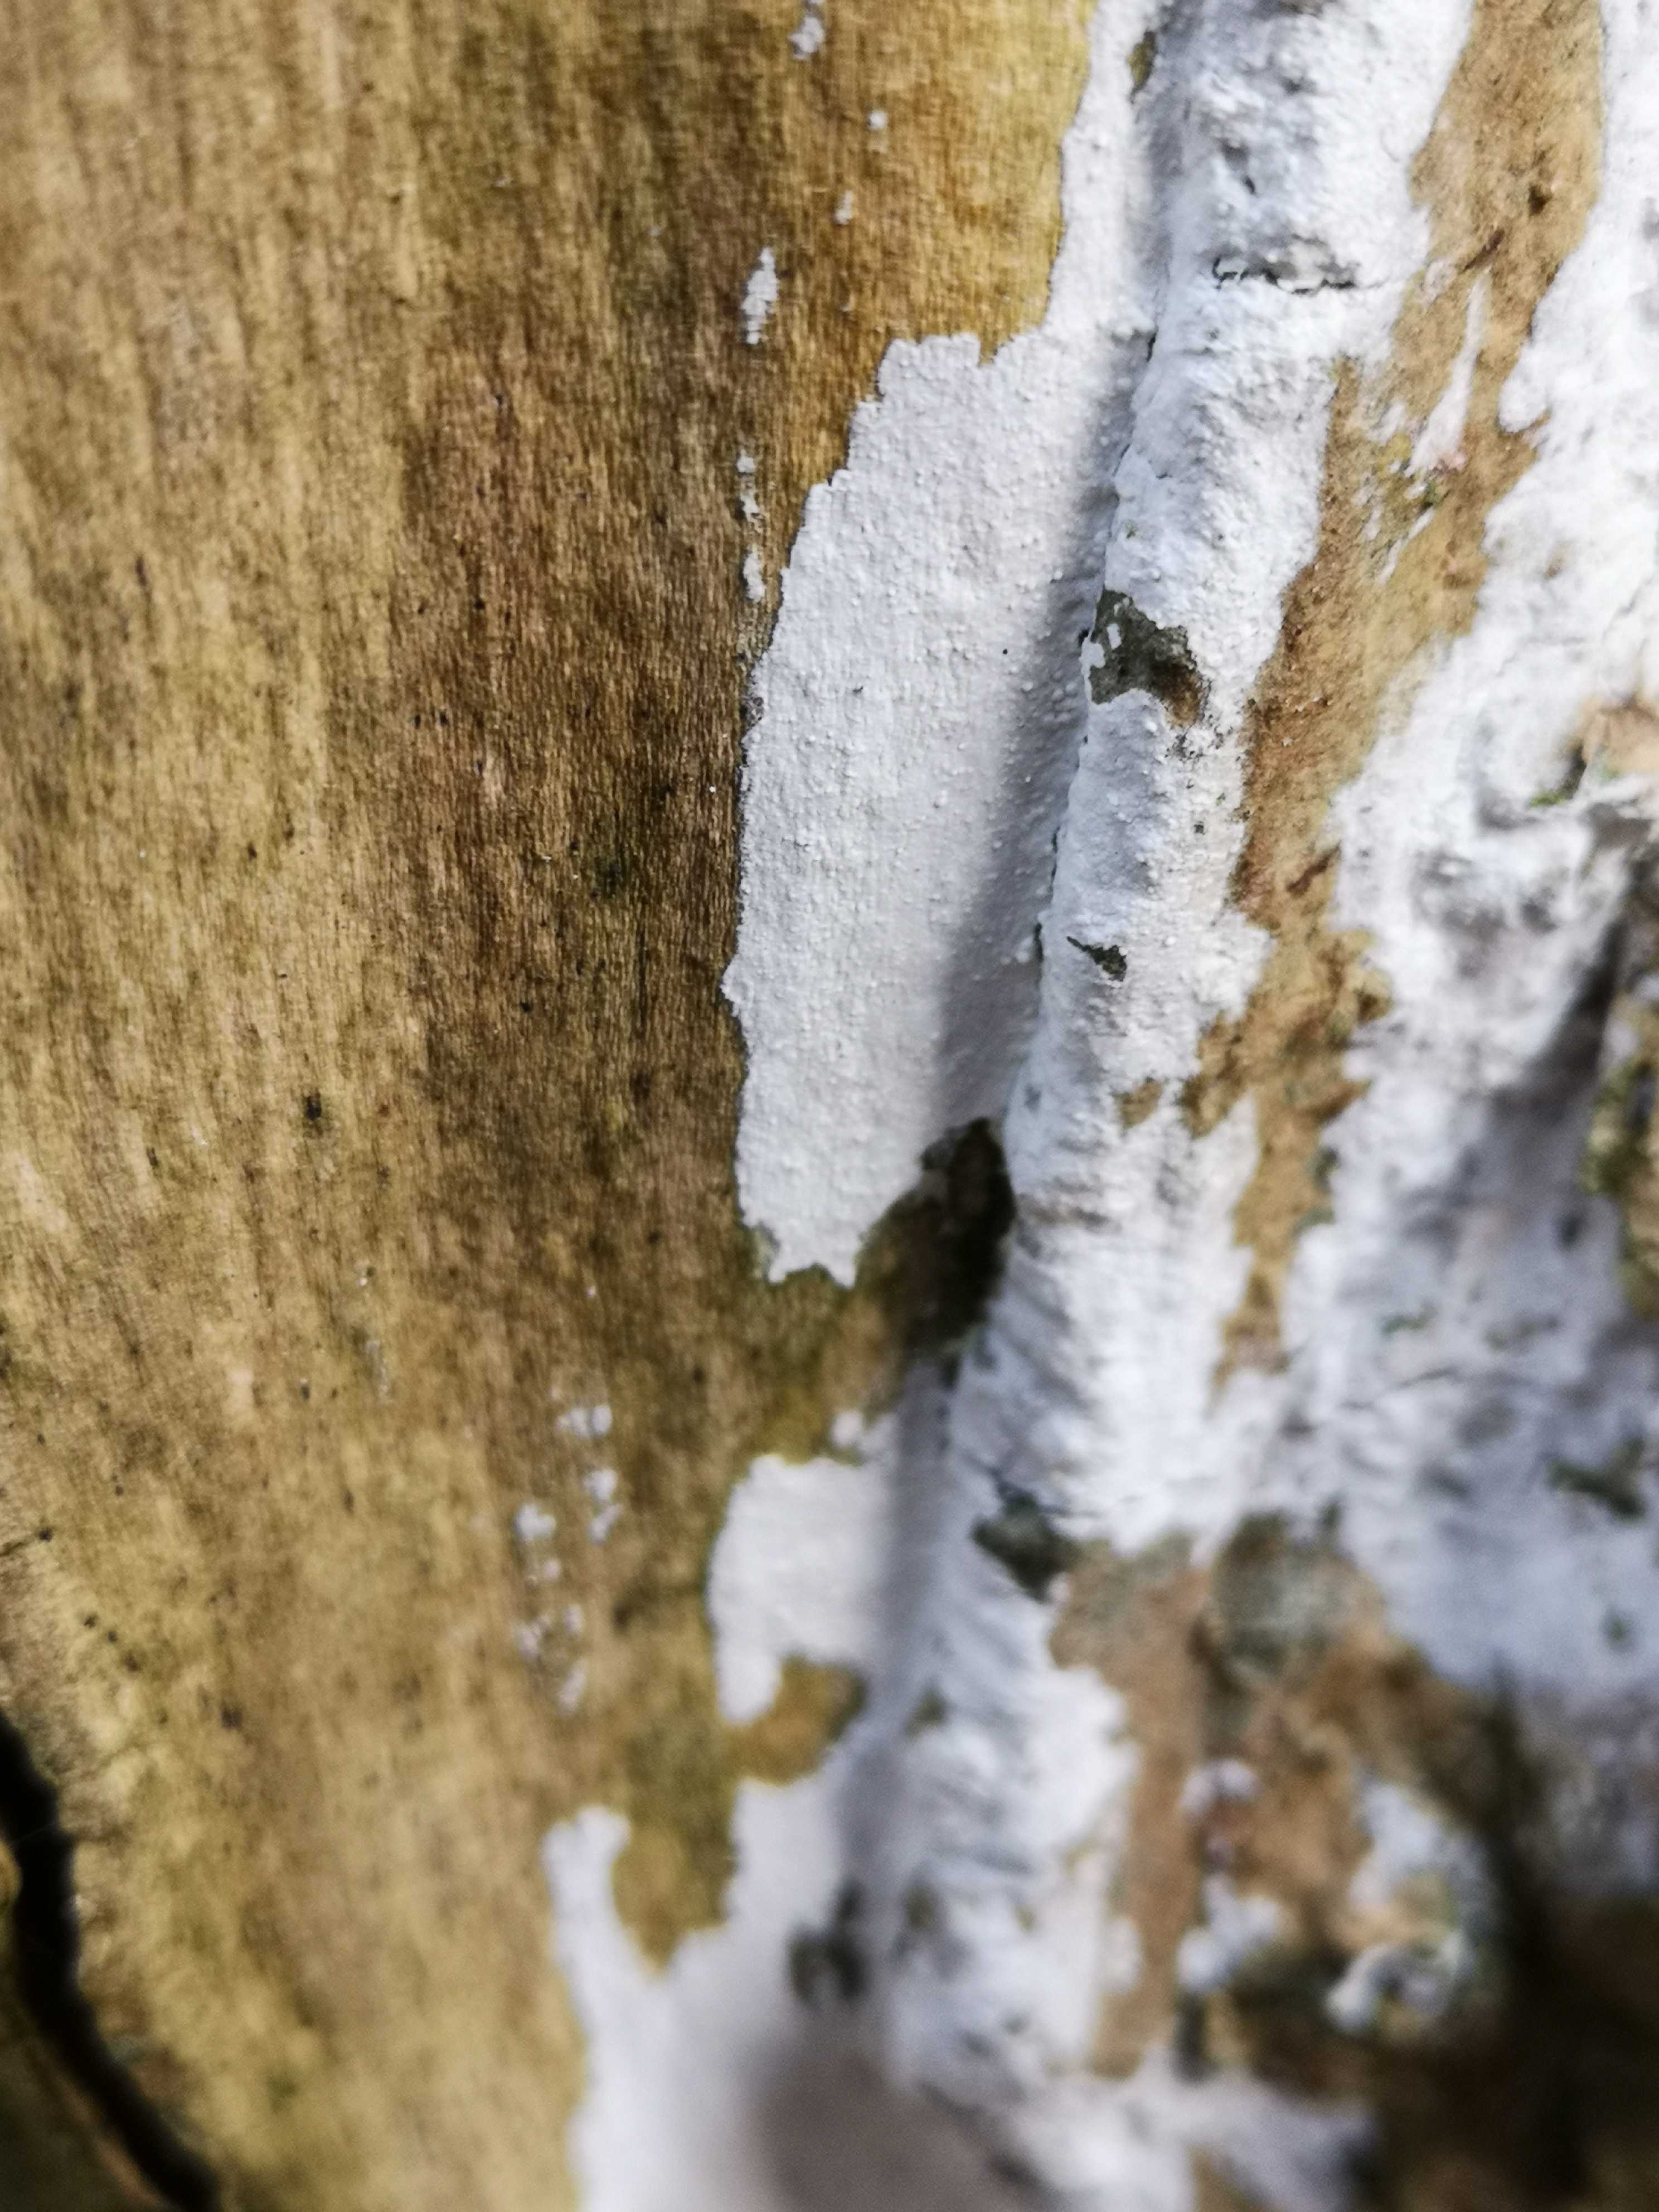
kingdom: Fungi
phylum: Basidiomycota
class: Agaricomycetes
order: Corticiales
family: Corticiaceae
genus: Lyomyces
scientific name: Lyomyces sambuci
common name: almindelig hyldehinde
